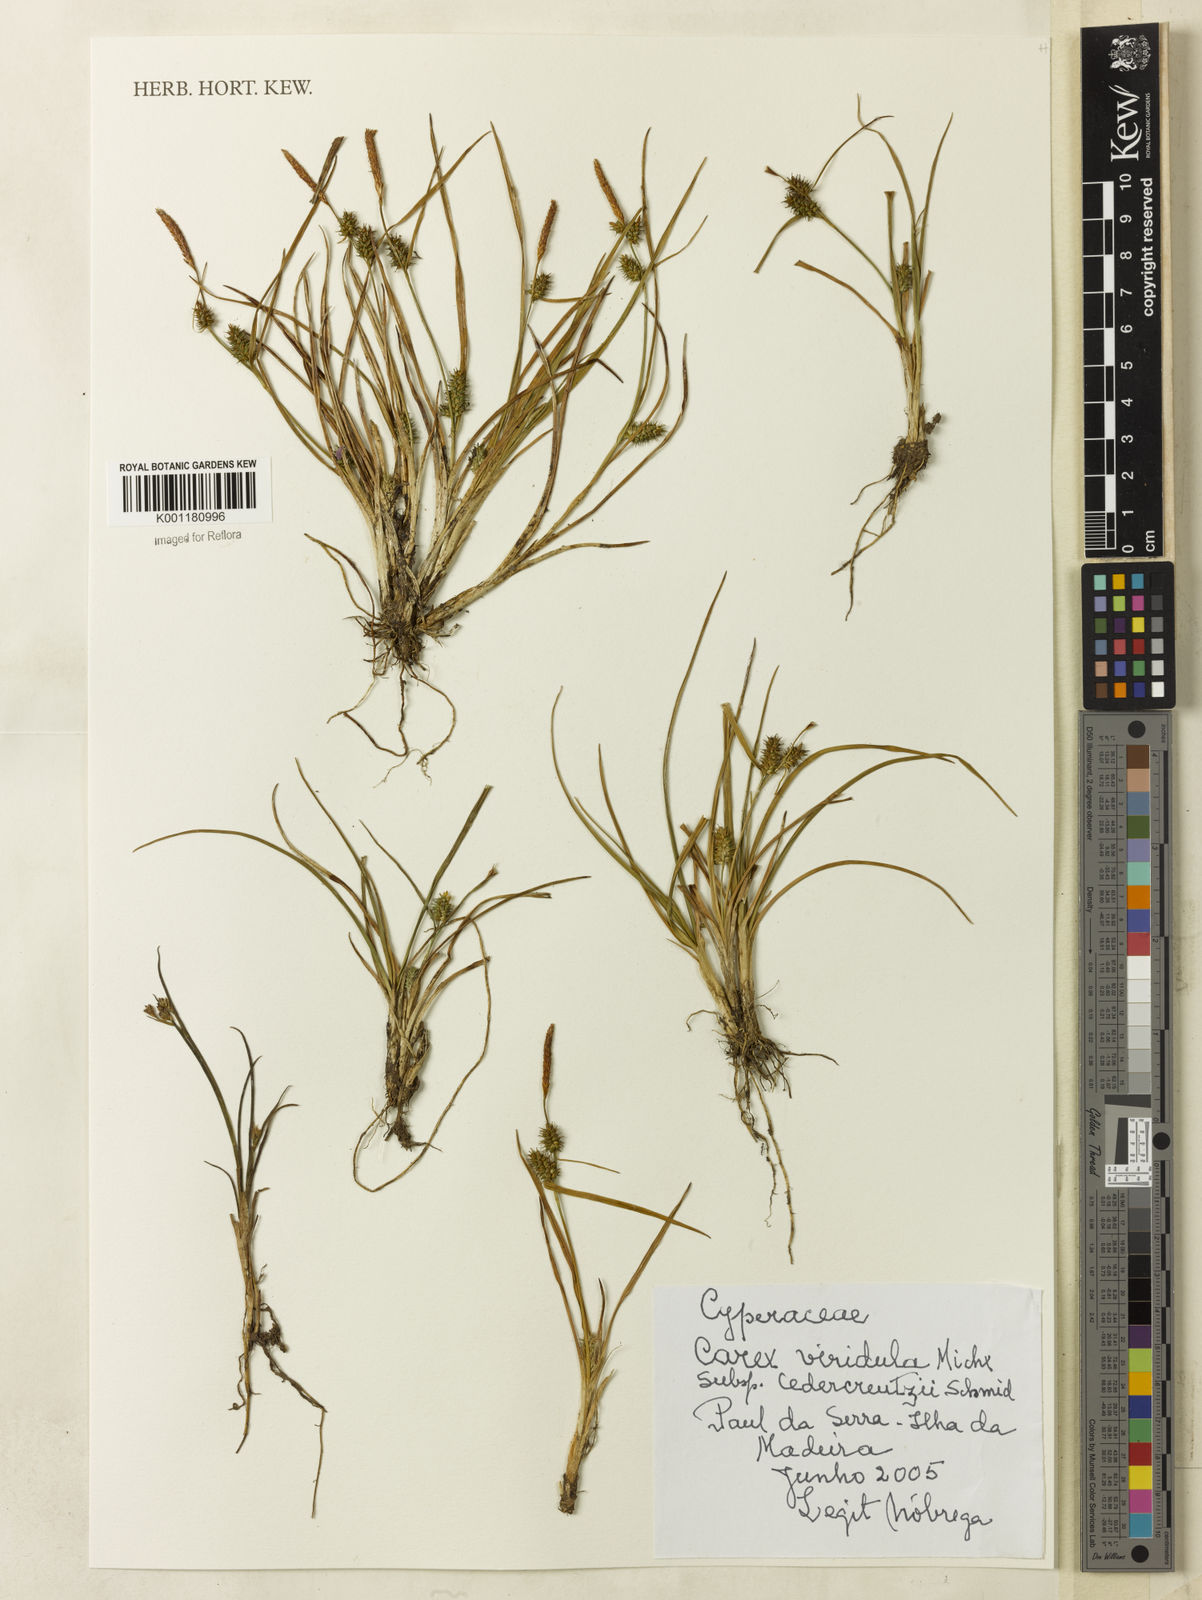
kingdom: Plantae
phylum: Tracheophyta
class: Liliopsida
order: Poales
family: Cyperaceae
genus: Carex
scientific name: Carex demissa
